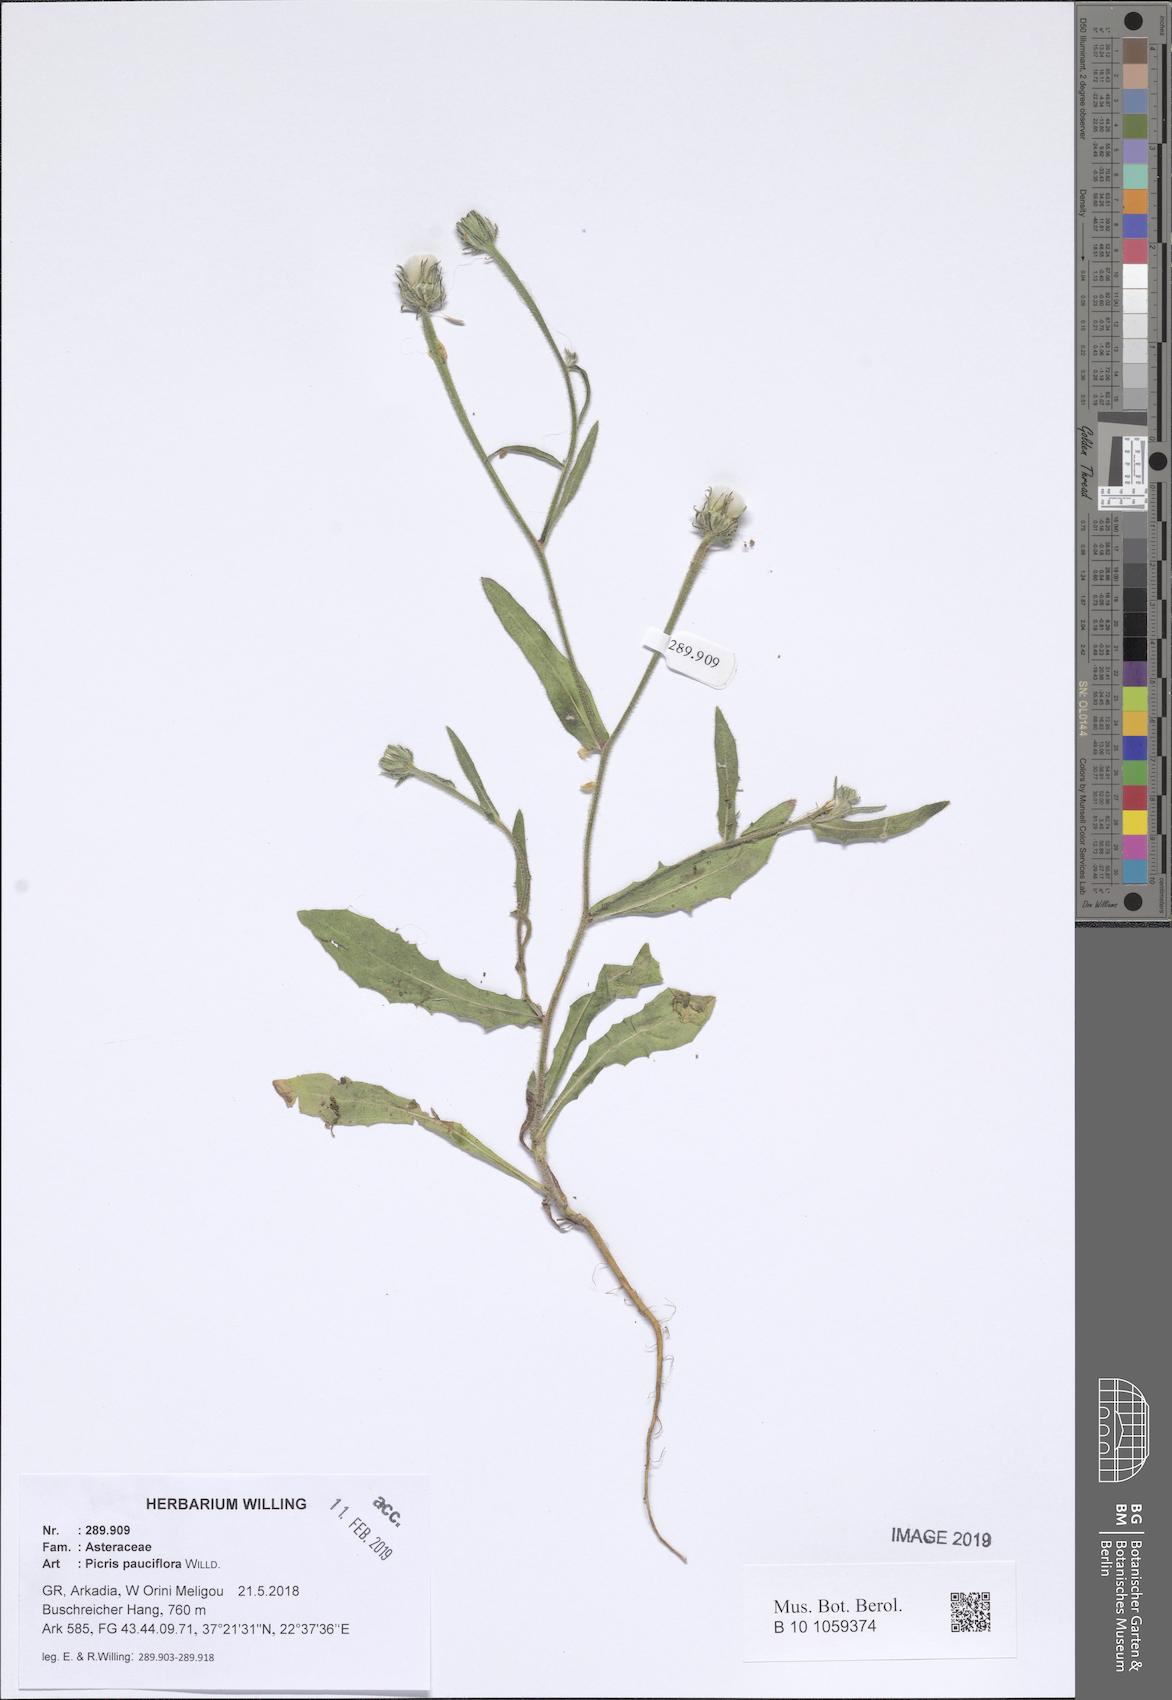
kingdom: Plantae
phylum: Tracheophyta
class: Magnoliopsida
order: Asterales
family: Asteraceae
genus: Picris
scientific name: Picris pauciflora
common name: Smallflower oxtongue
